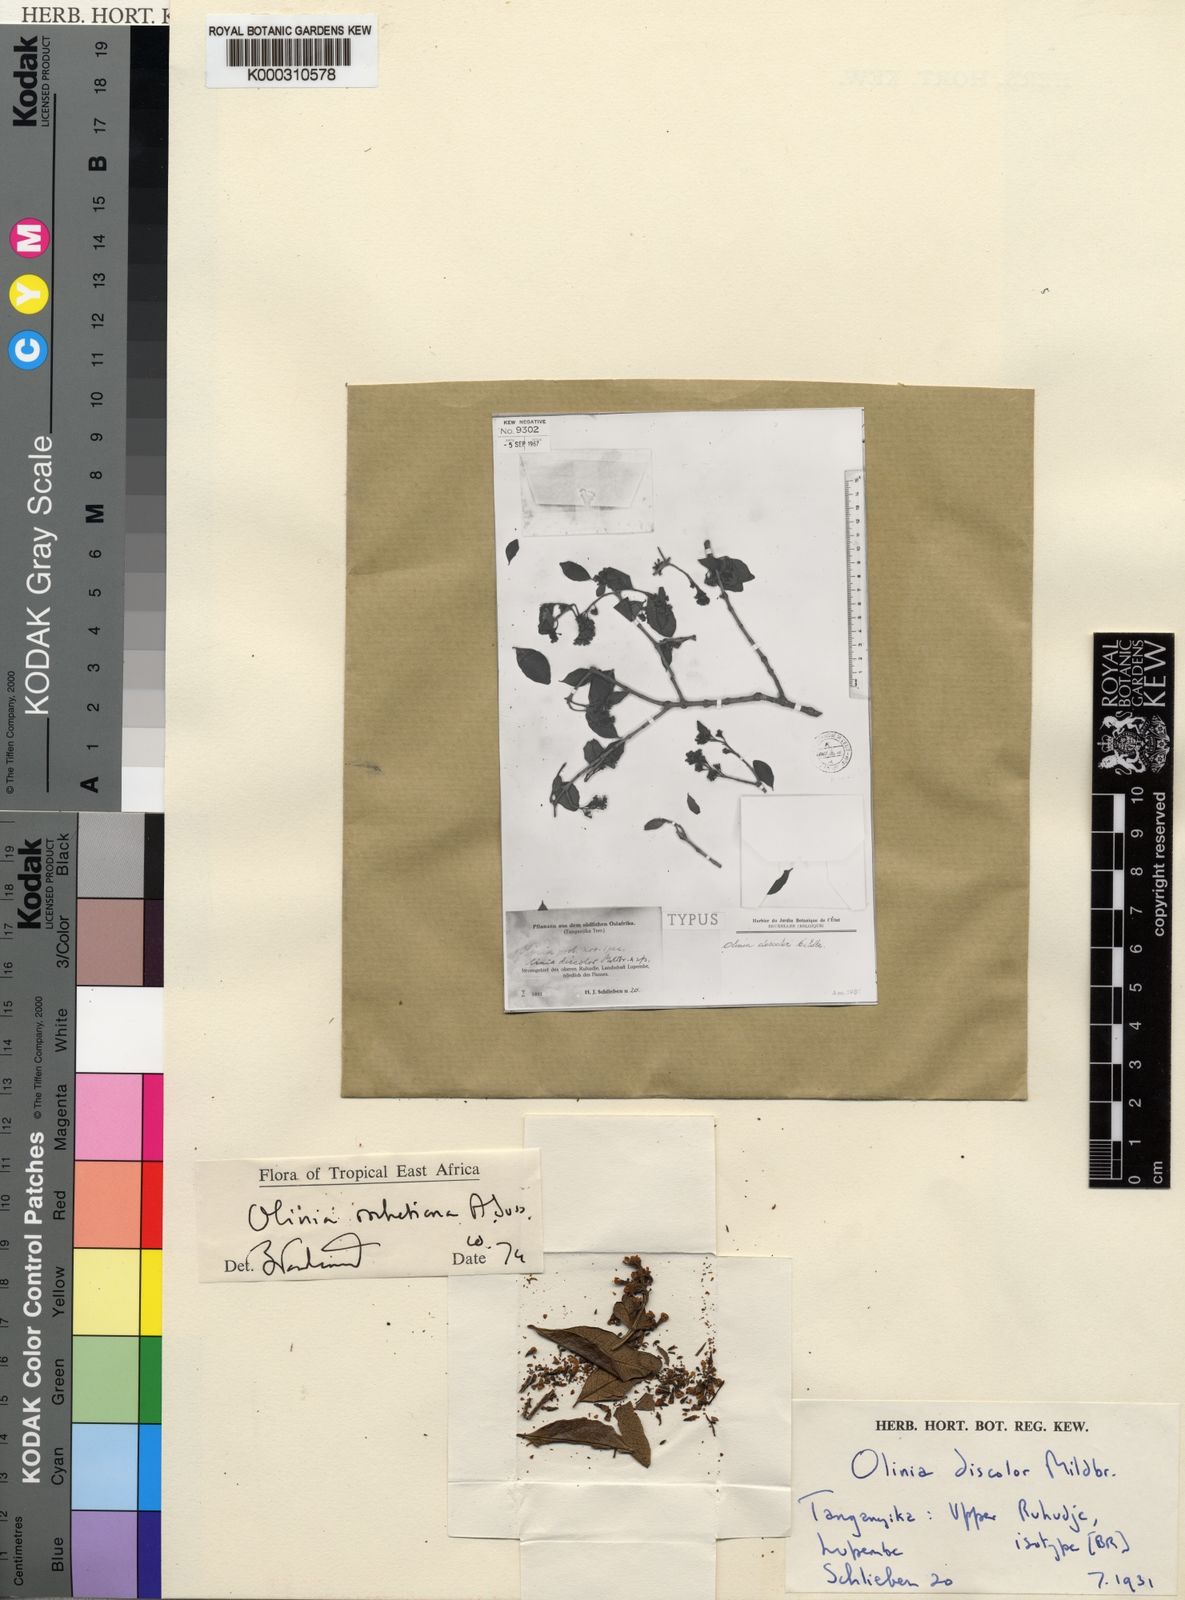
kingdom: Plantae
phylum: Tracheophyta
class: Magnoliopsida
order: Myrtales
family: Penaeaceae
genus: Olinia
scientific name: Olinia rochetiana
